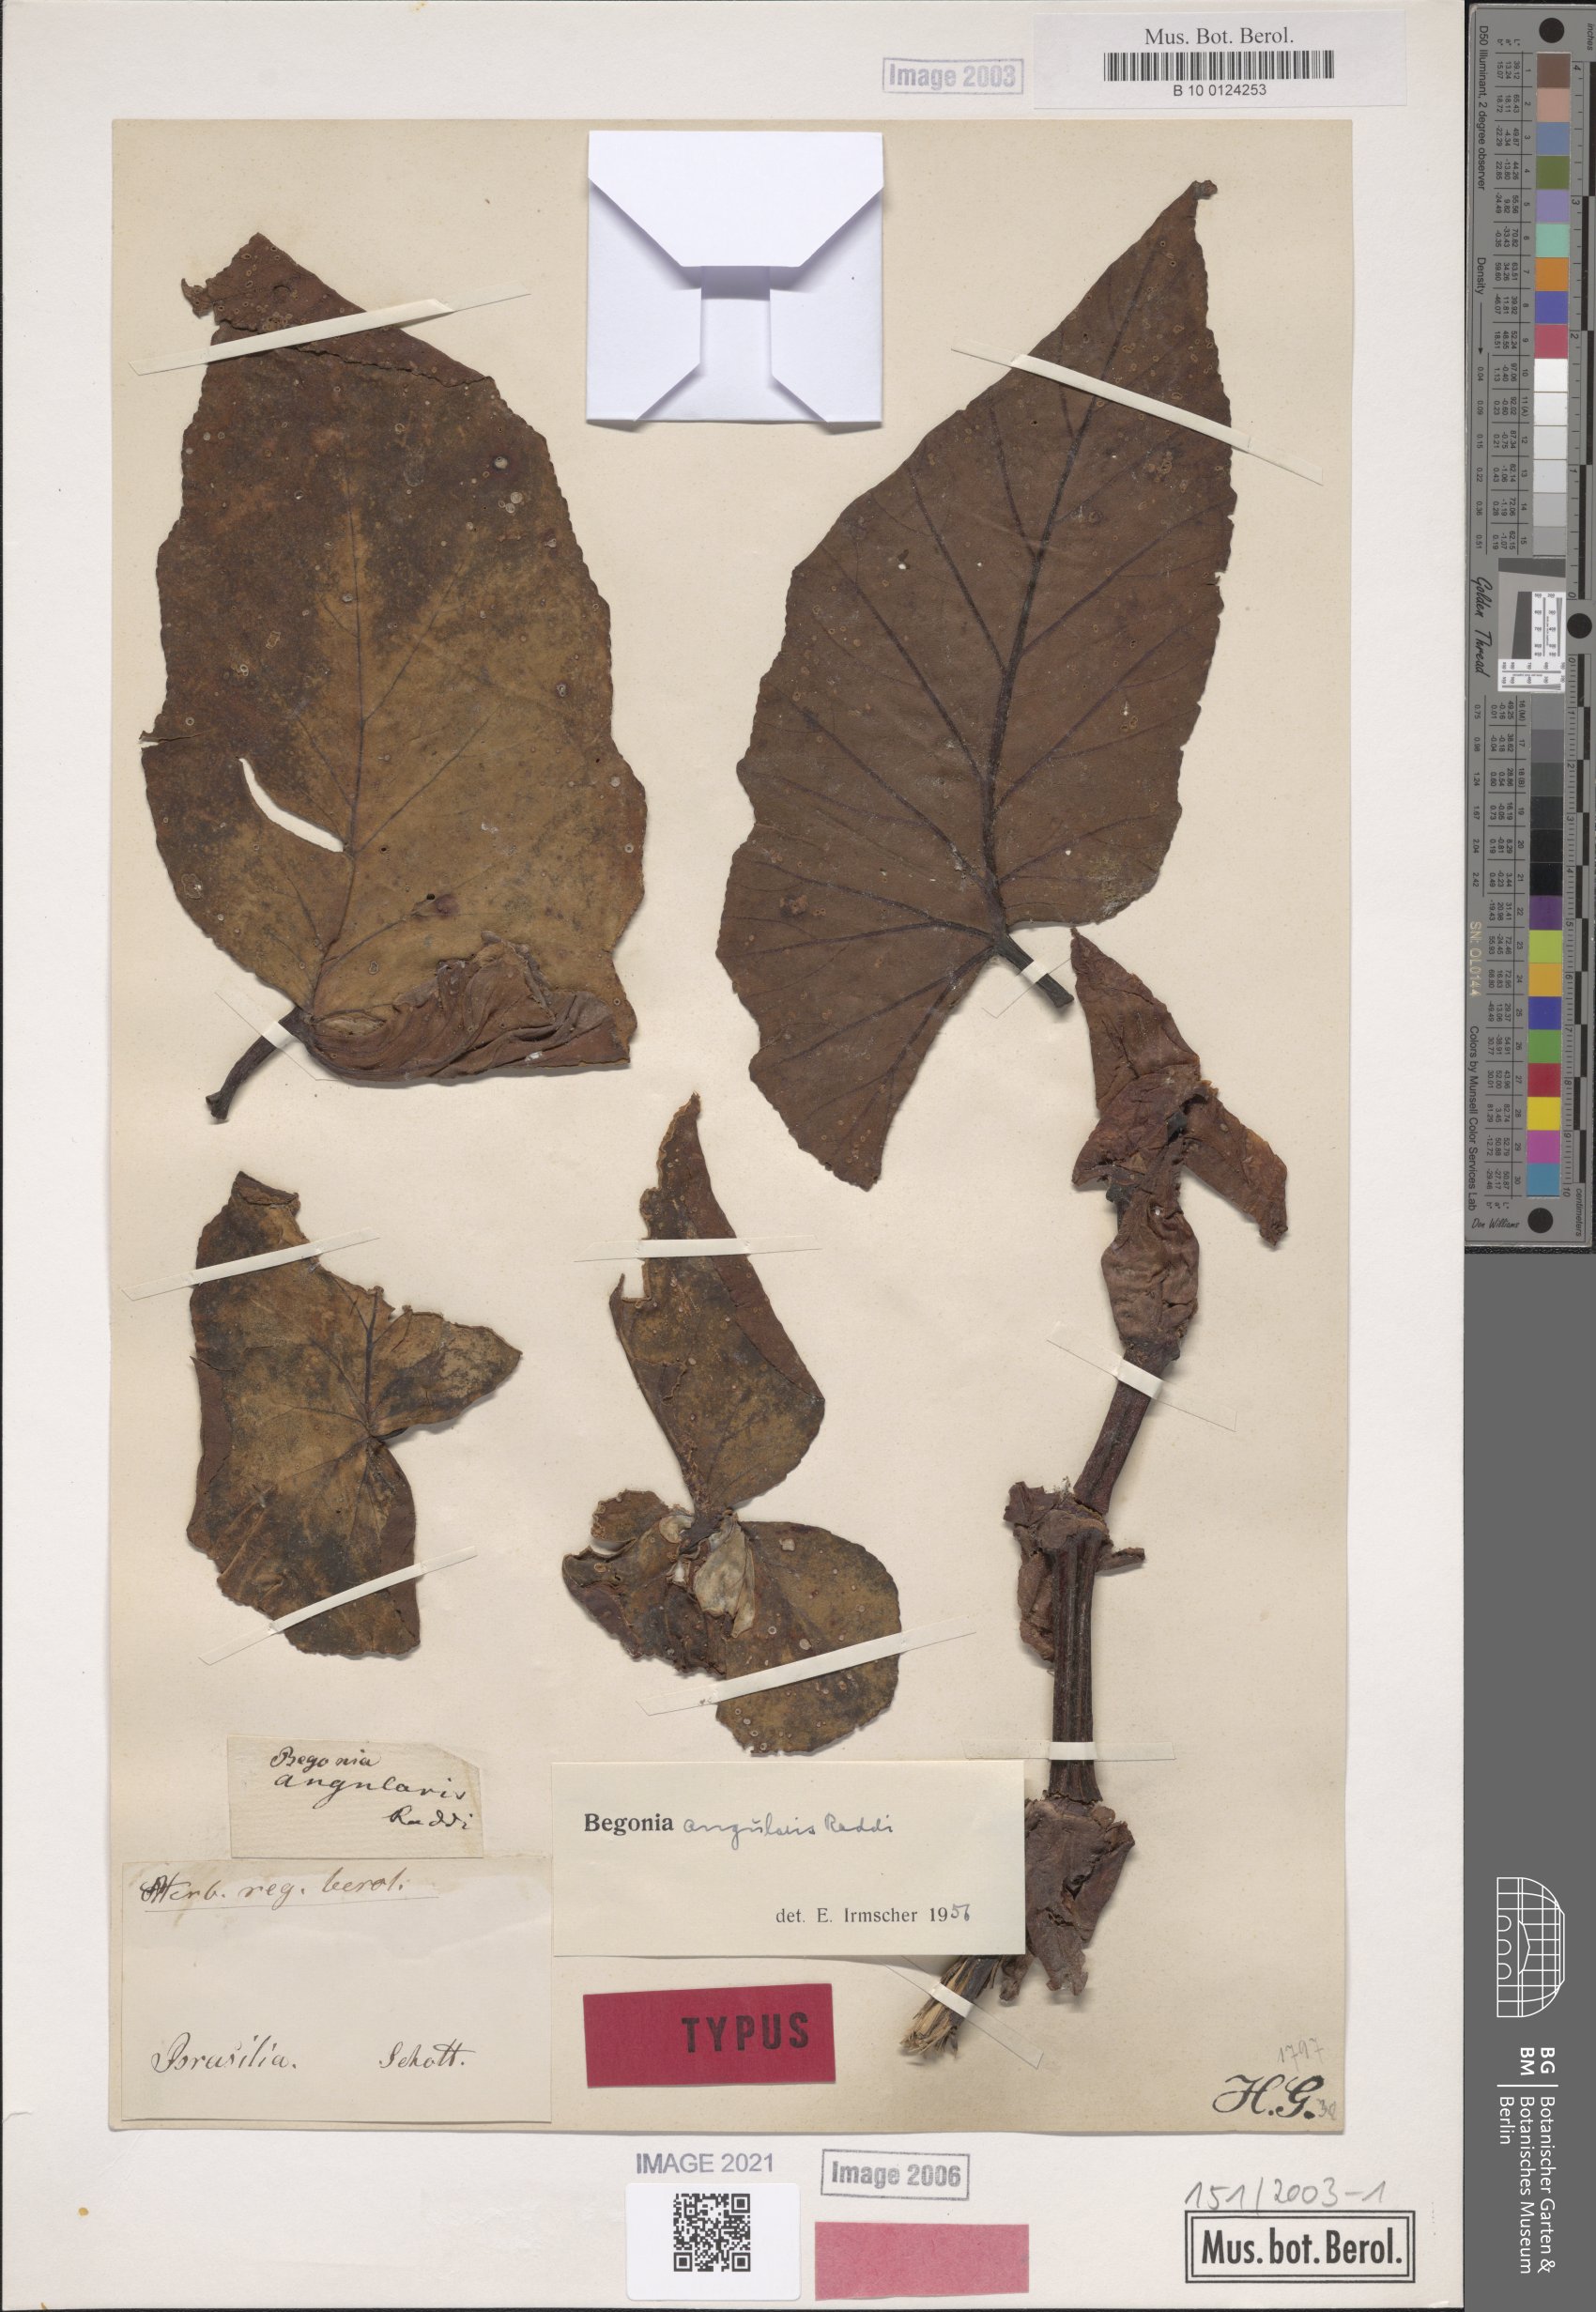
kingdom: Plantae
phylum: Tracheophyta
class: Magnoliopsida
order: Cucurbitales
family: Begoniaceae
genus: Begonia
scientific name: Begonia angularis
